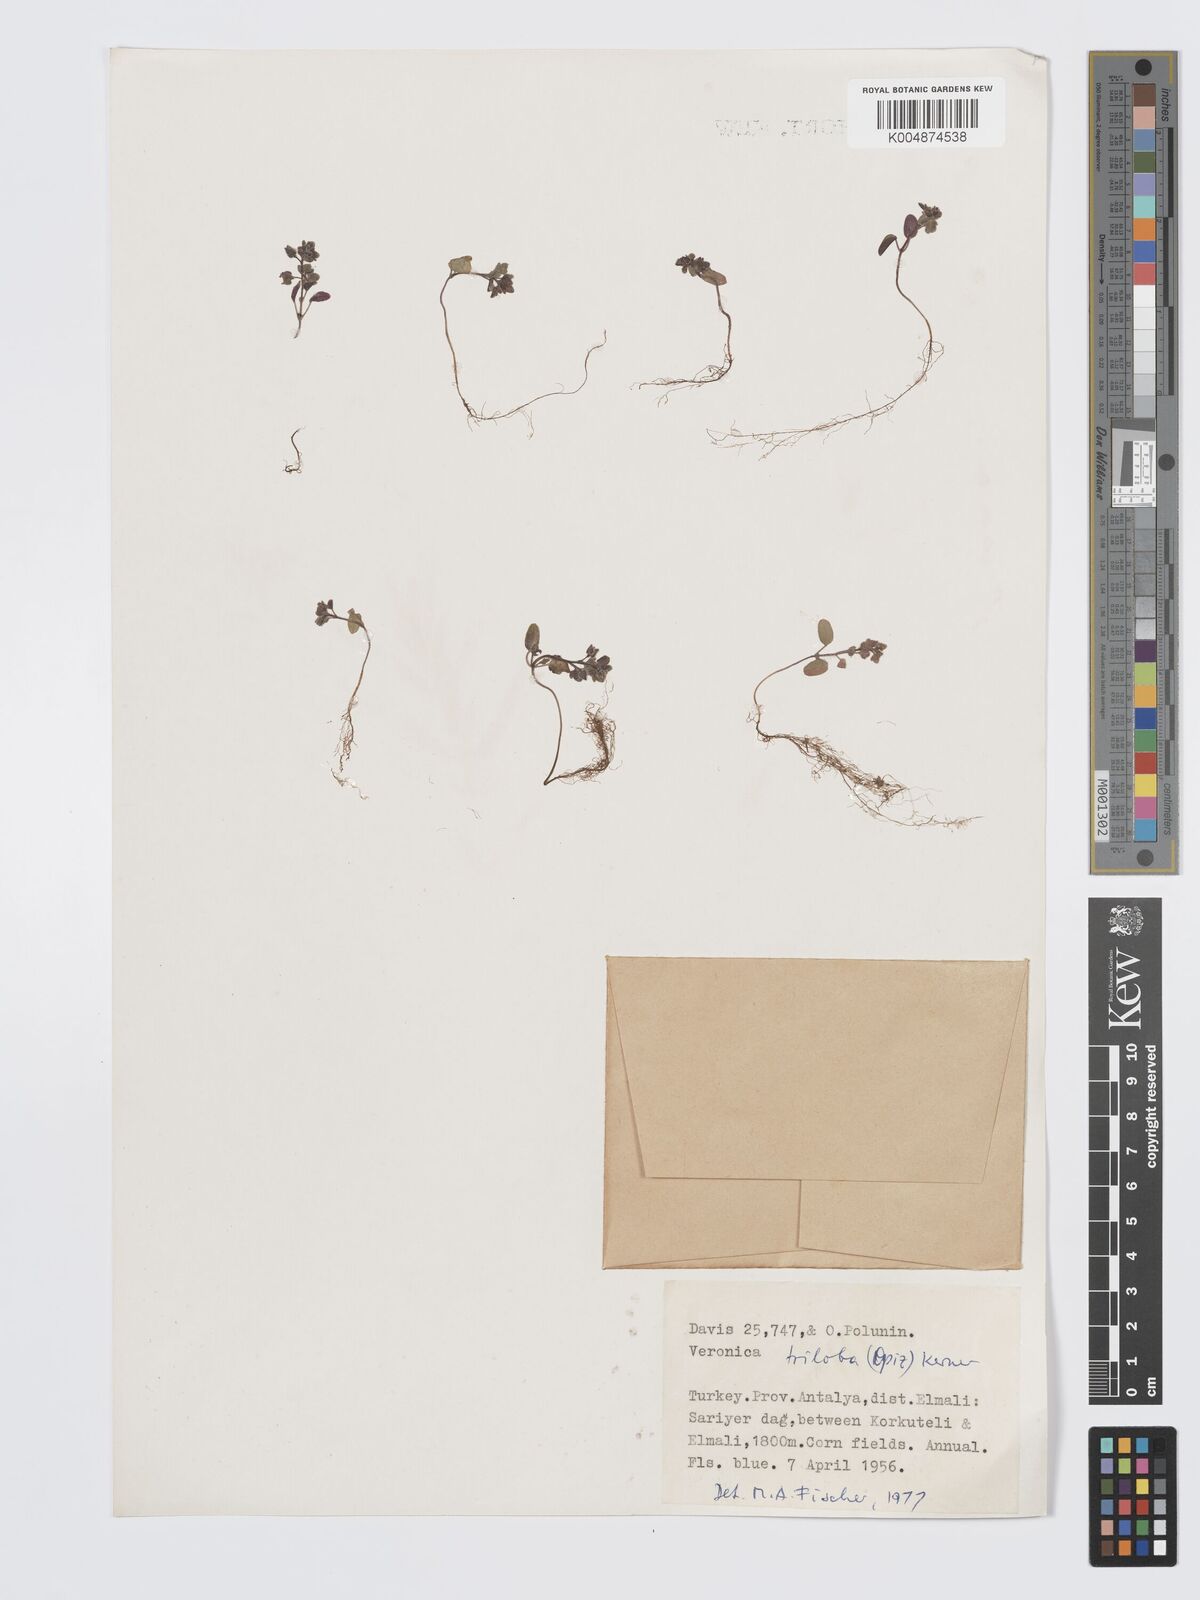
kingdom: Plantae
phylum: Tracheophyta
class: Magnoliopsida
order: Lamiales
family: Plantaginaceae
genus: Veronica
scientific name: Veronica triloba
